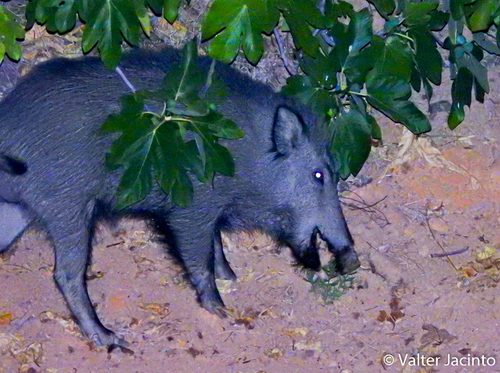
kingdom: Animalia
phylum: Chordata
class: Mammalia
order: Artiodactyla
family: Suidae
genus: Sus
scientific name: Sus scrofa
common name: Wild boar
